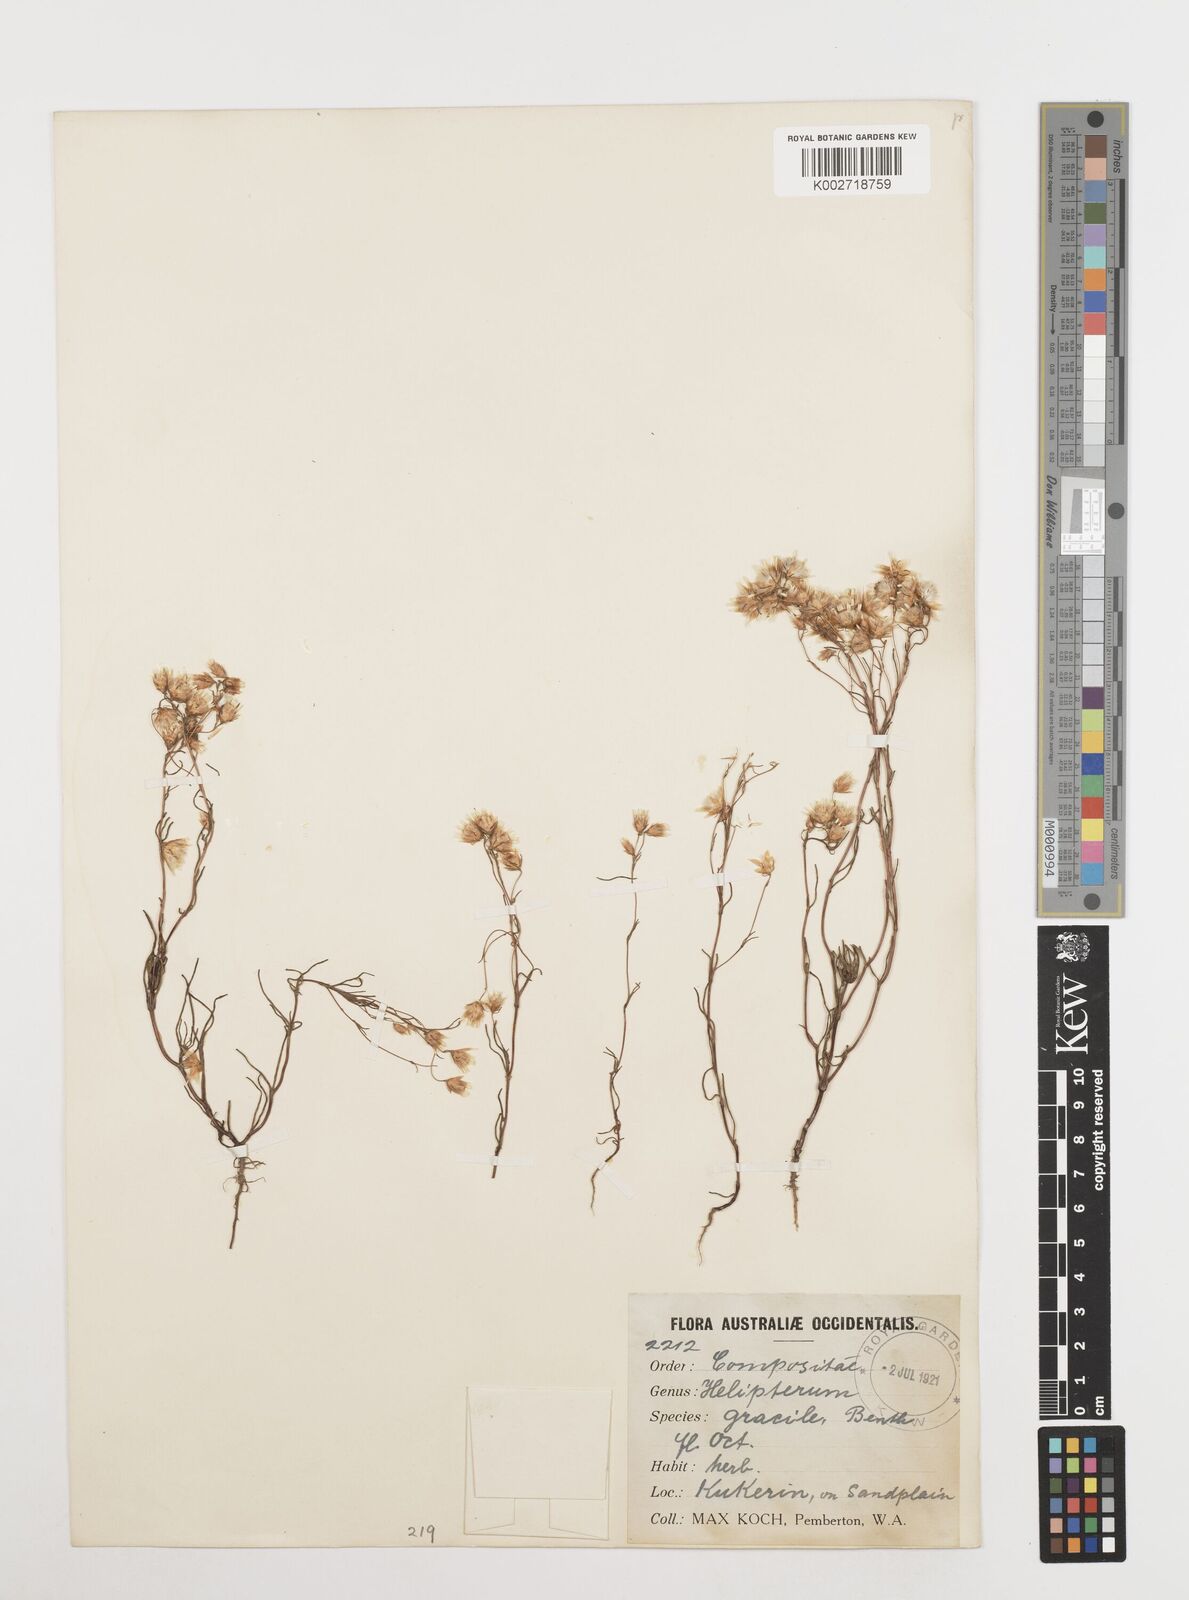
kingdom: Plantae
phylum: Tracheophyta
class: Magnoliopsida
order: Asterales
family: Asteraceae
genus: Erymophyllum
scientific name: Erymophyllum tenellum
